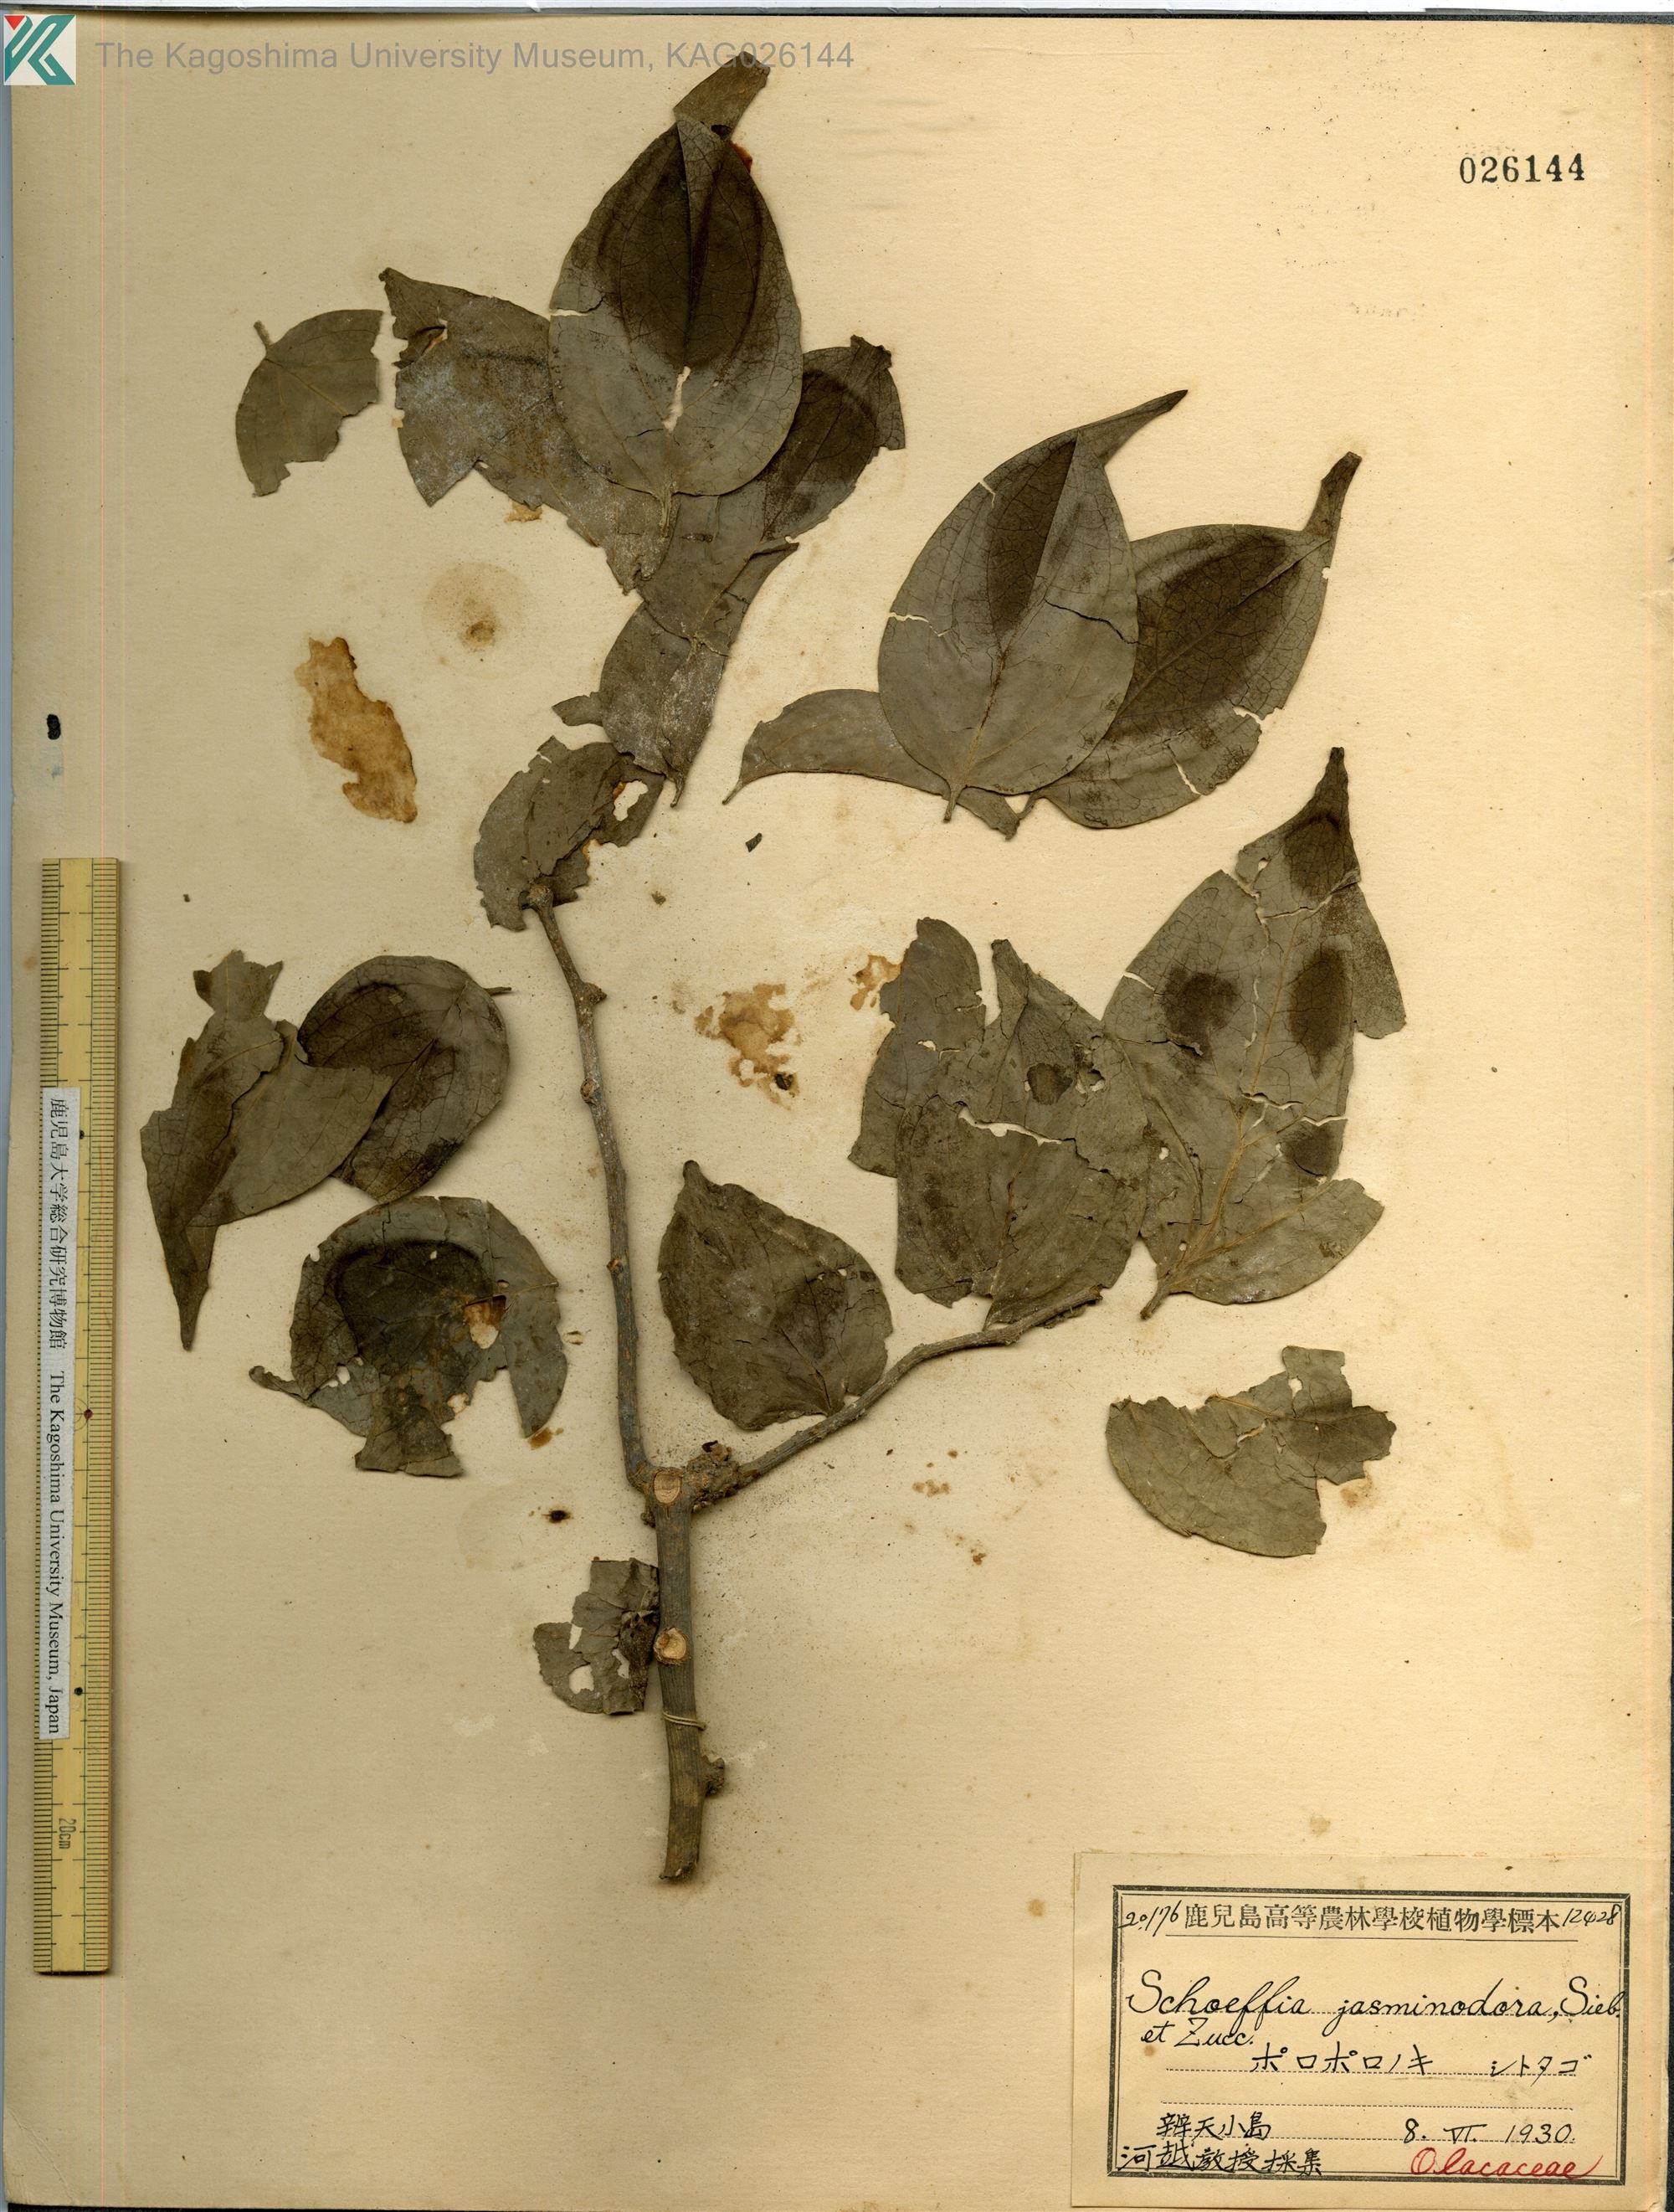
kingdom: Plantae
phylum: Tracheophyta
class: Magnoliopsida
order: Santalales
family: Schoepfiaceae
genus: Schoepfia
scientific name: Schoepfia jasminodora
